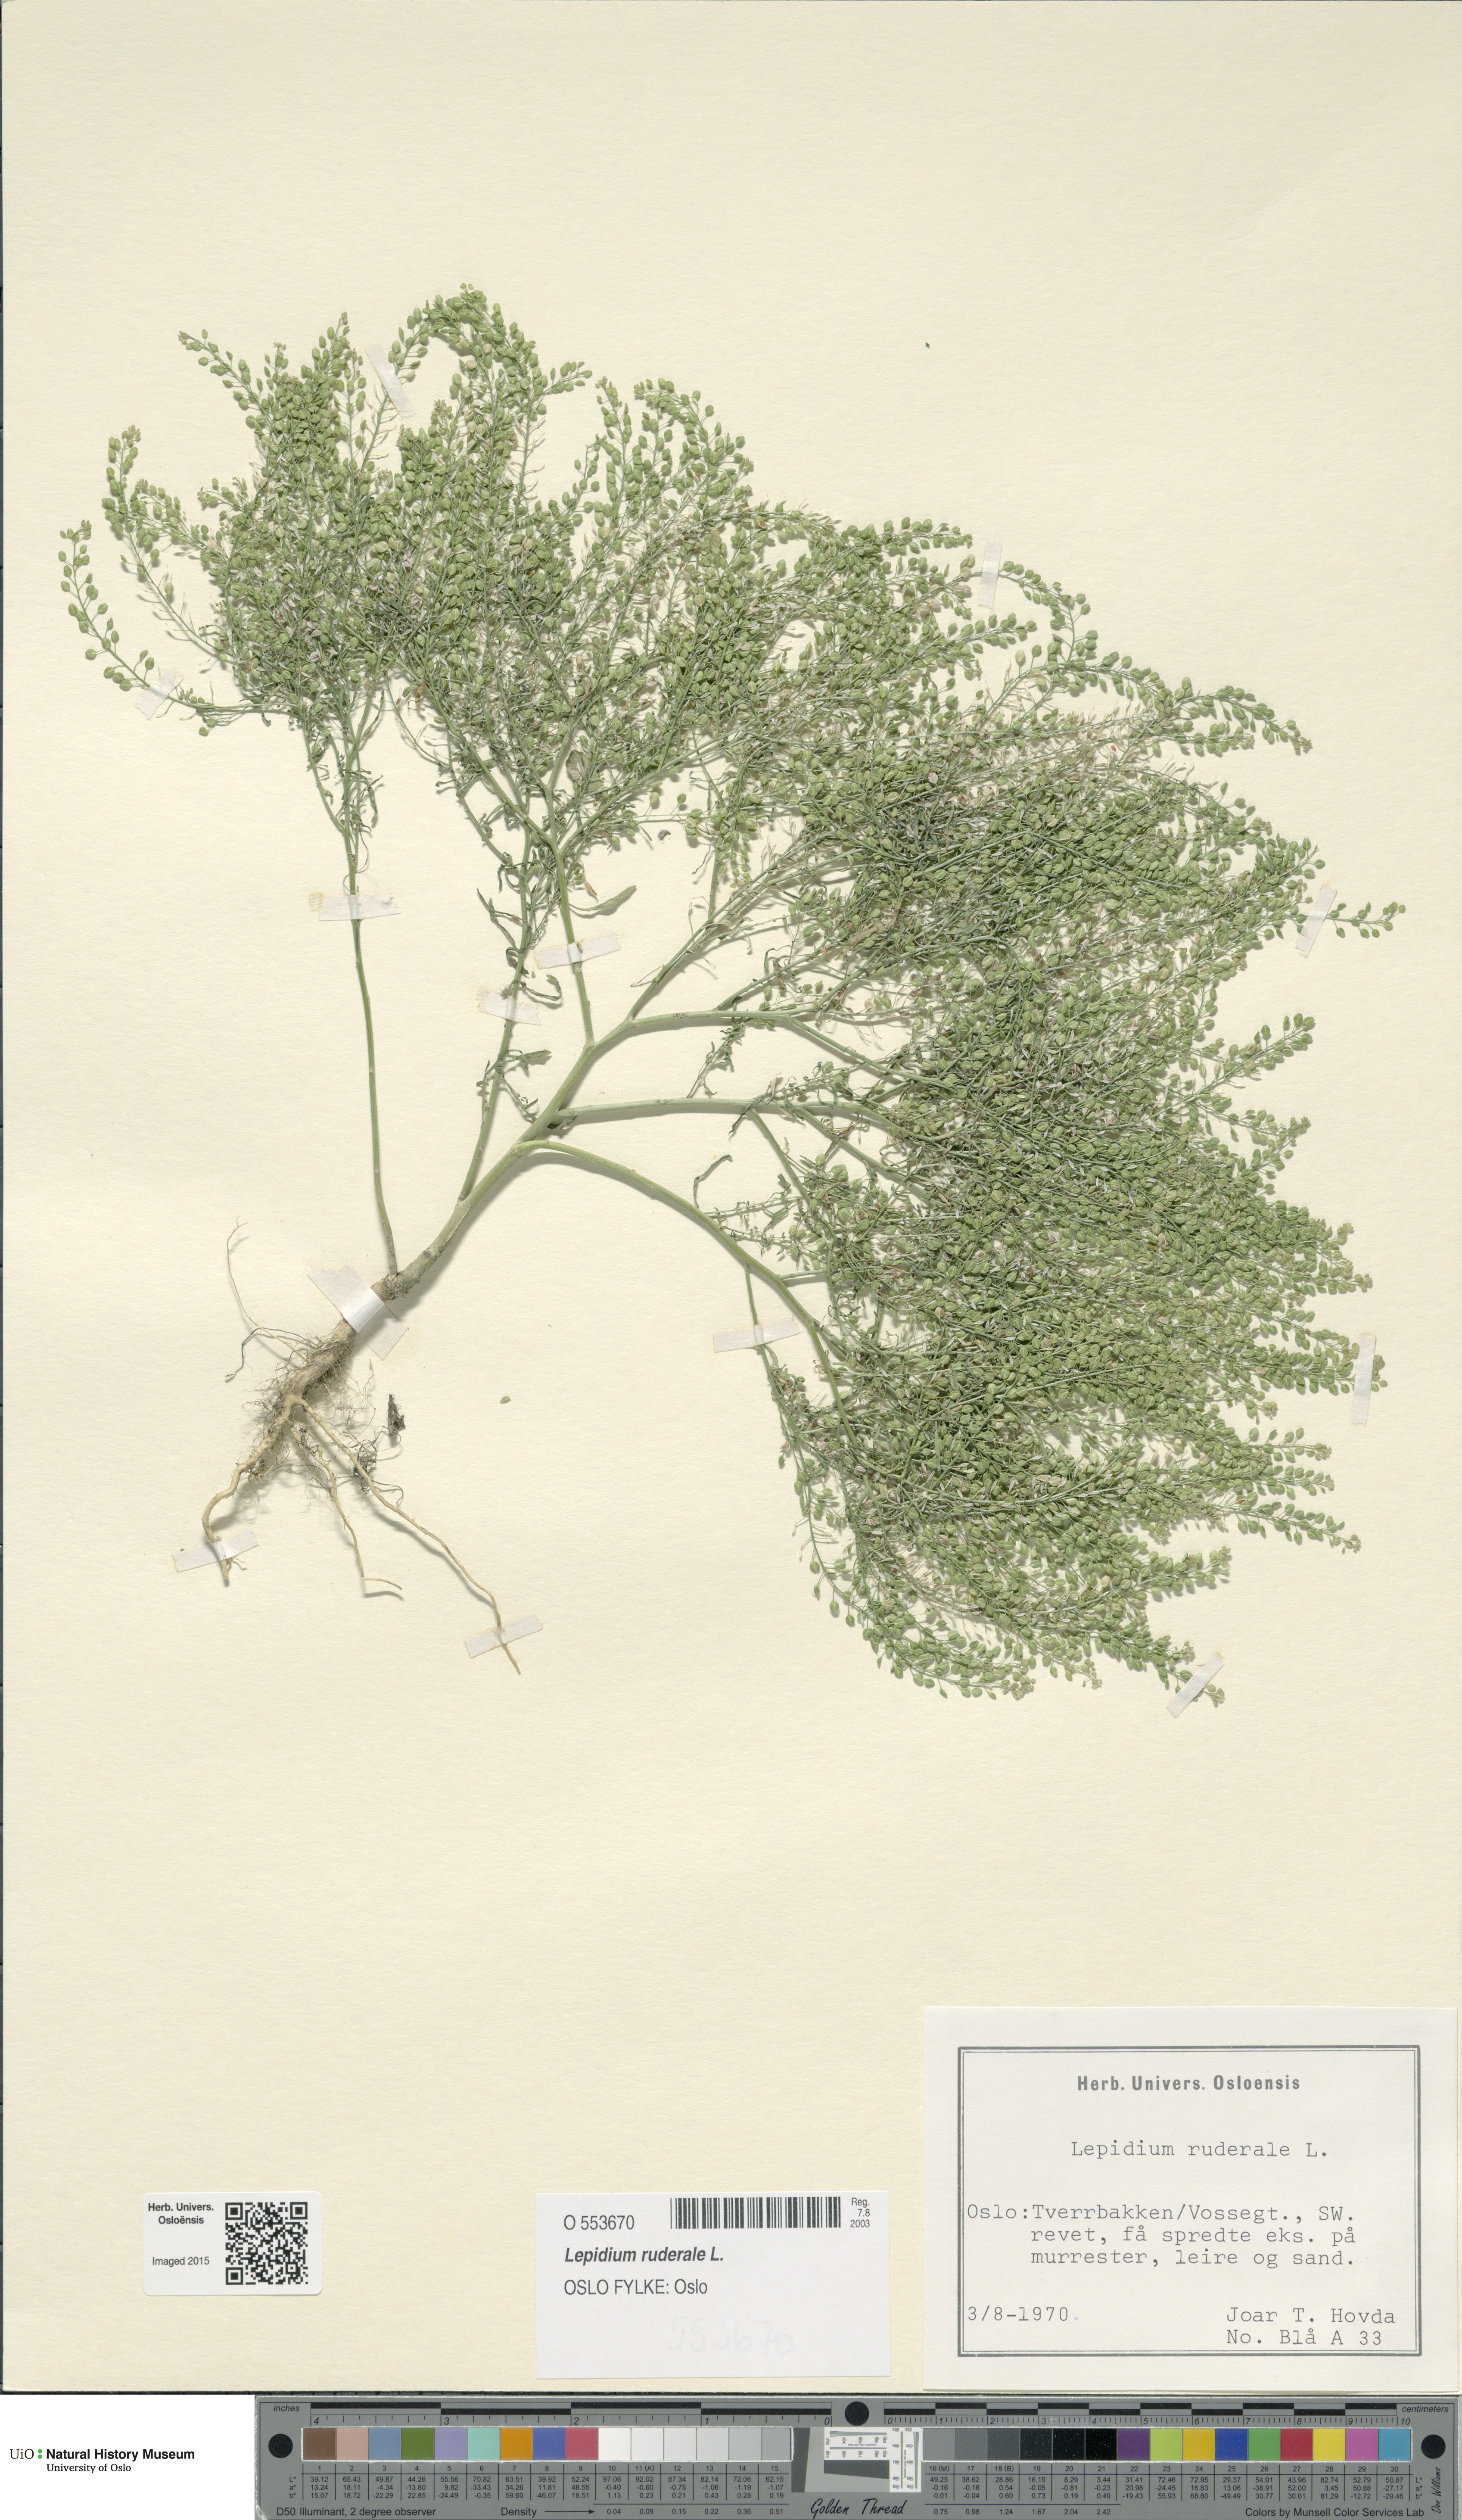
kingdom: Plantae
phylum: Tracheophyta
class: Magnoliopsida
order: Brassicales
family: Brassicaceae
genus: Lepidium
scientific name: Lepidium ruderale
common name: Narrow-leaved pepperwort
